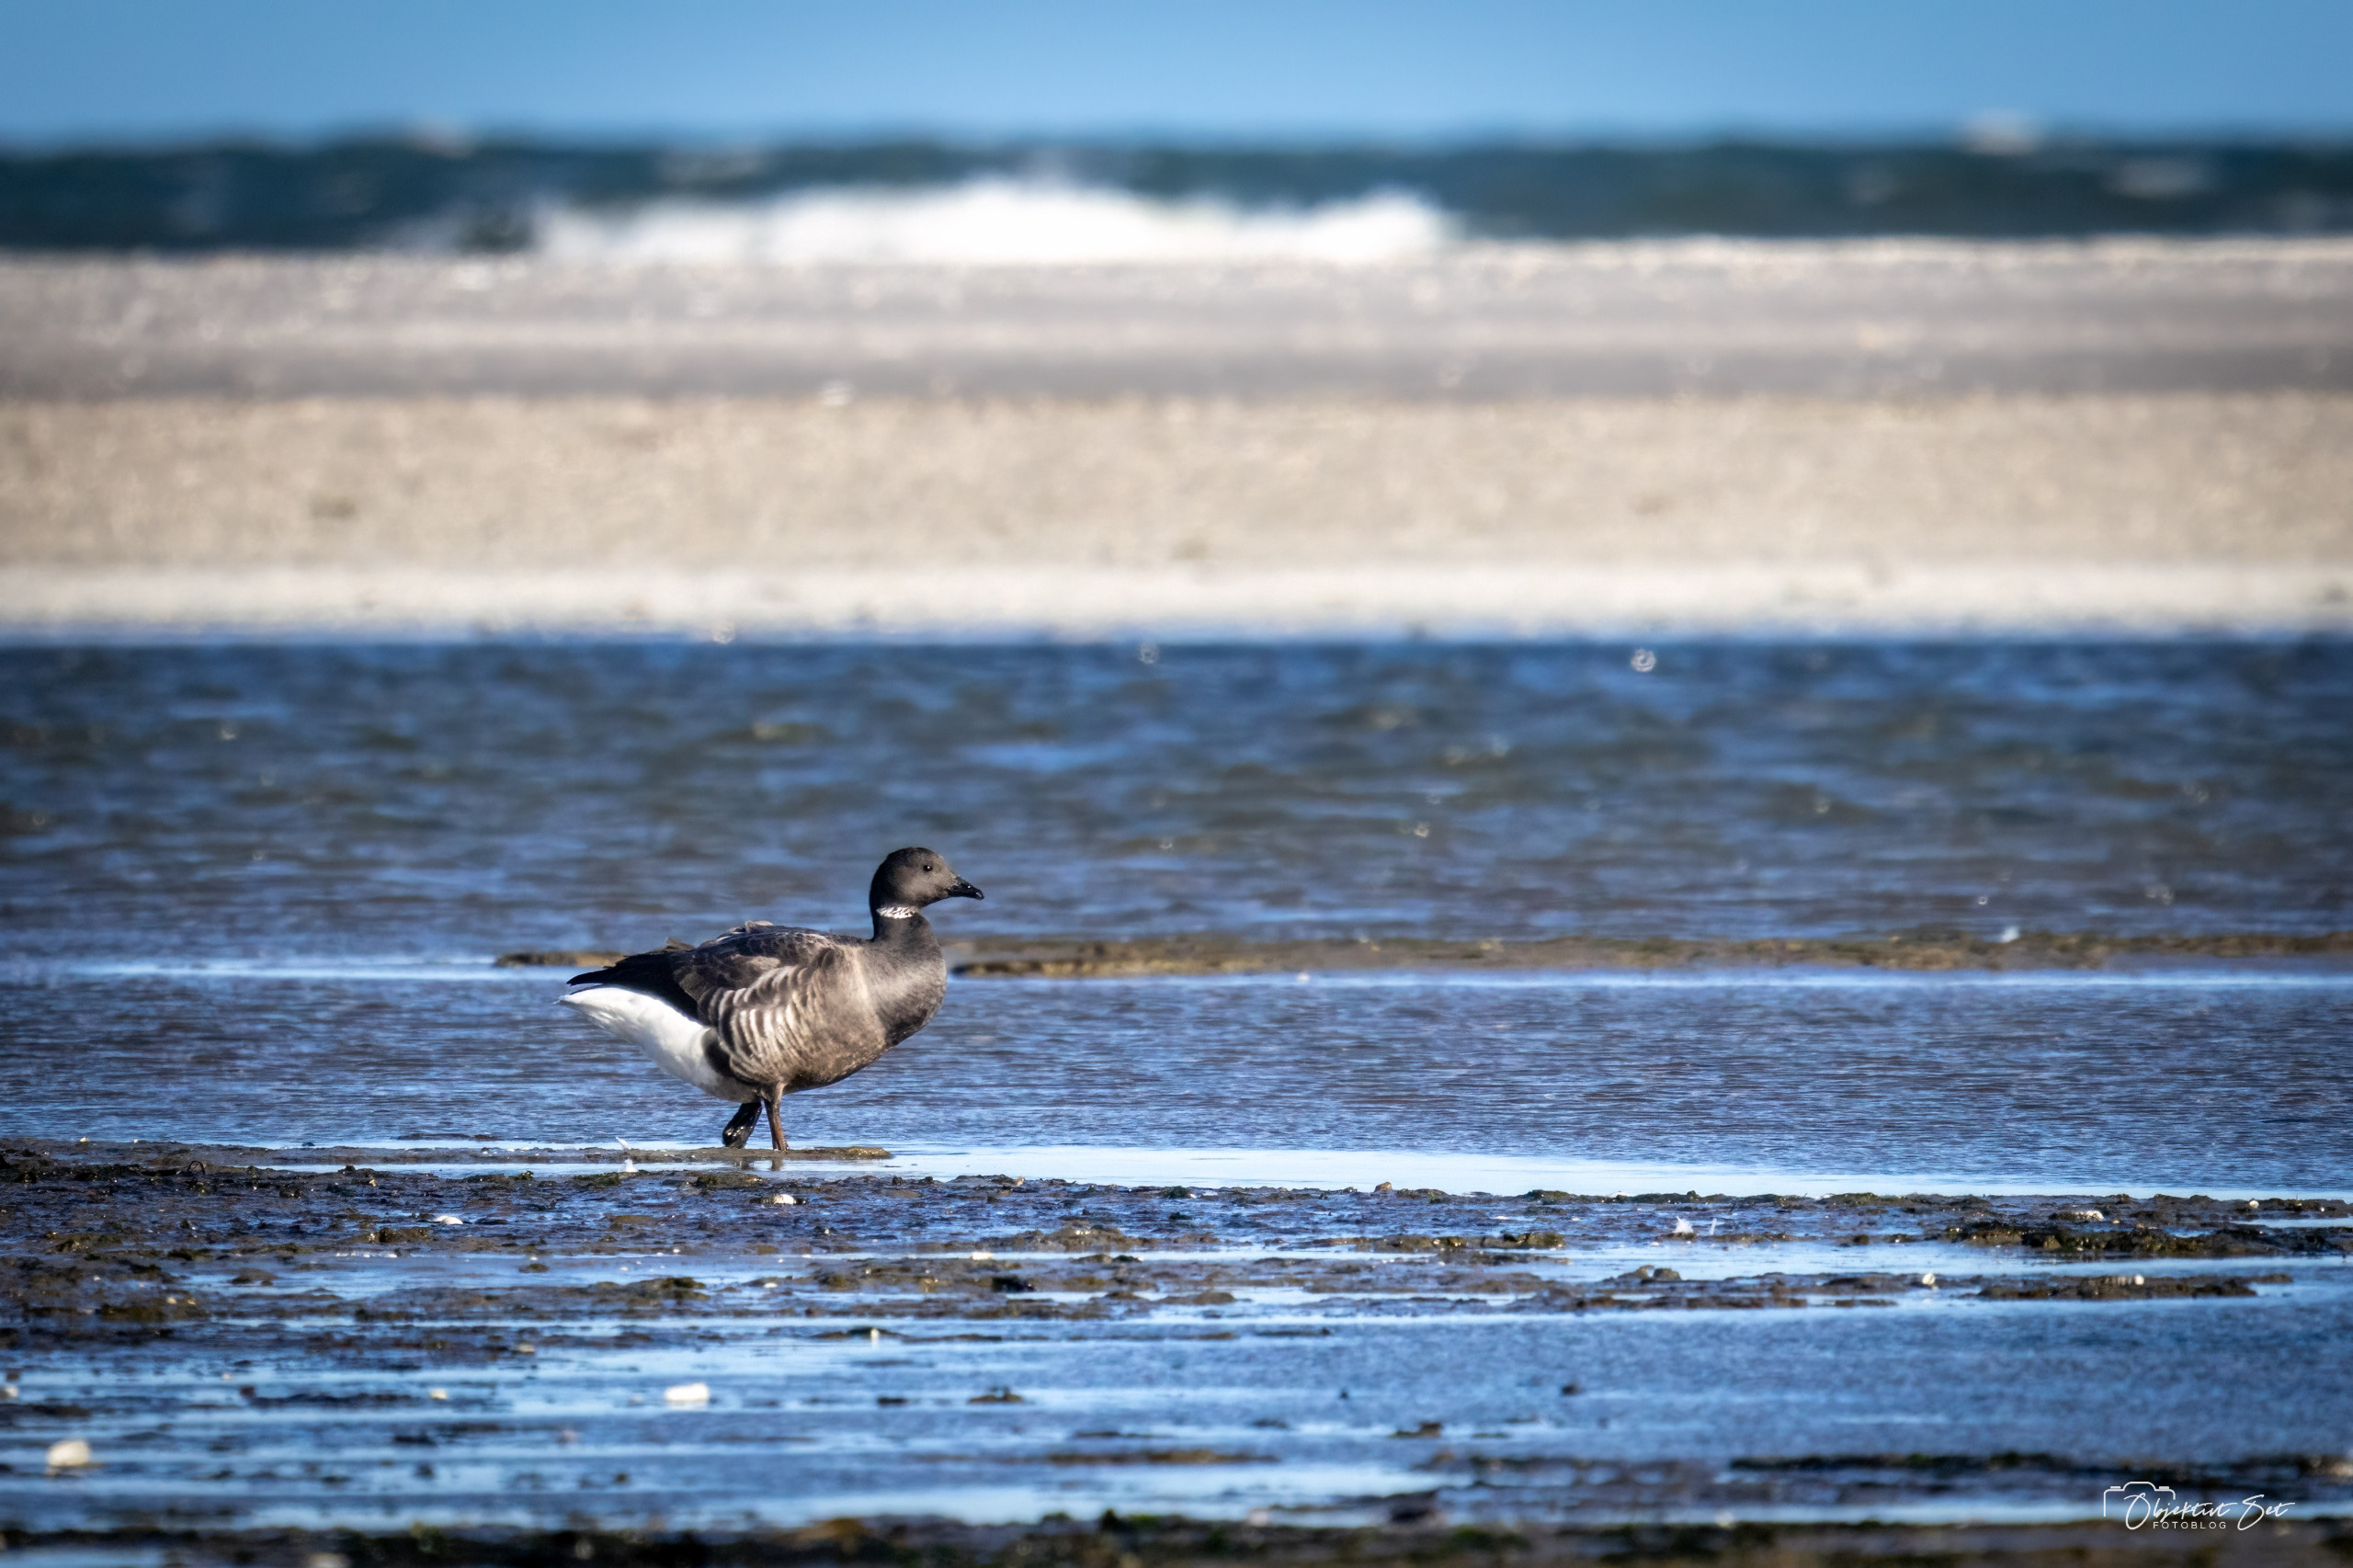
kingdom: Animalia
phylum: Chordata
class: Aves
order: Anseriformes
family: Anatidae
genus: Branta
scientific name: Branta bernicla
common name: Knortegås
